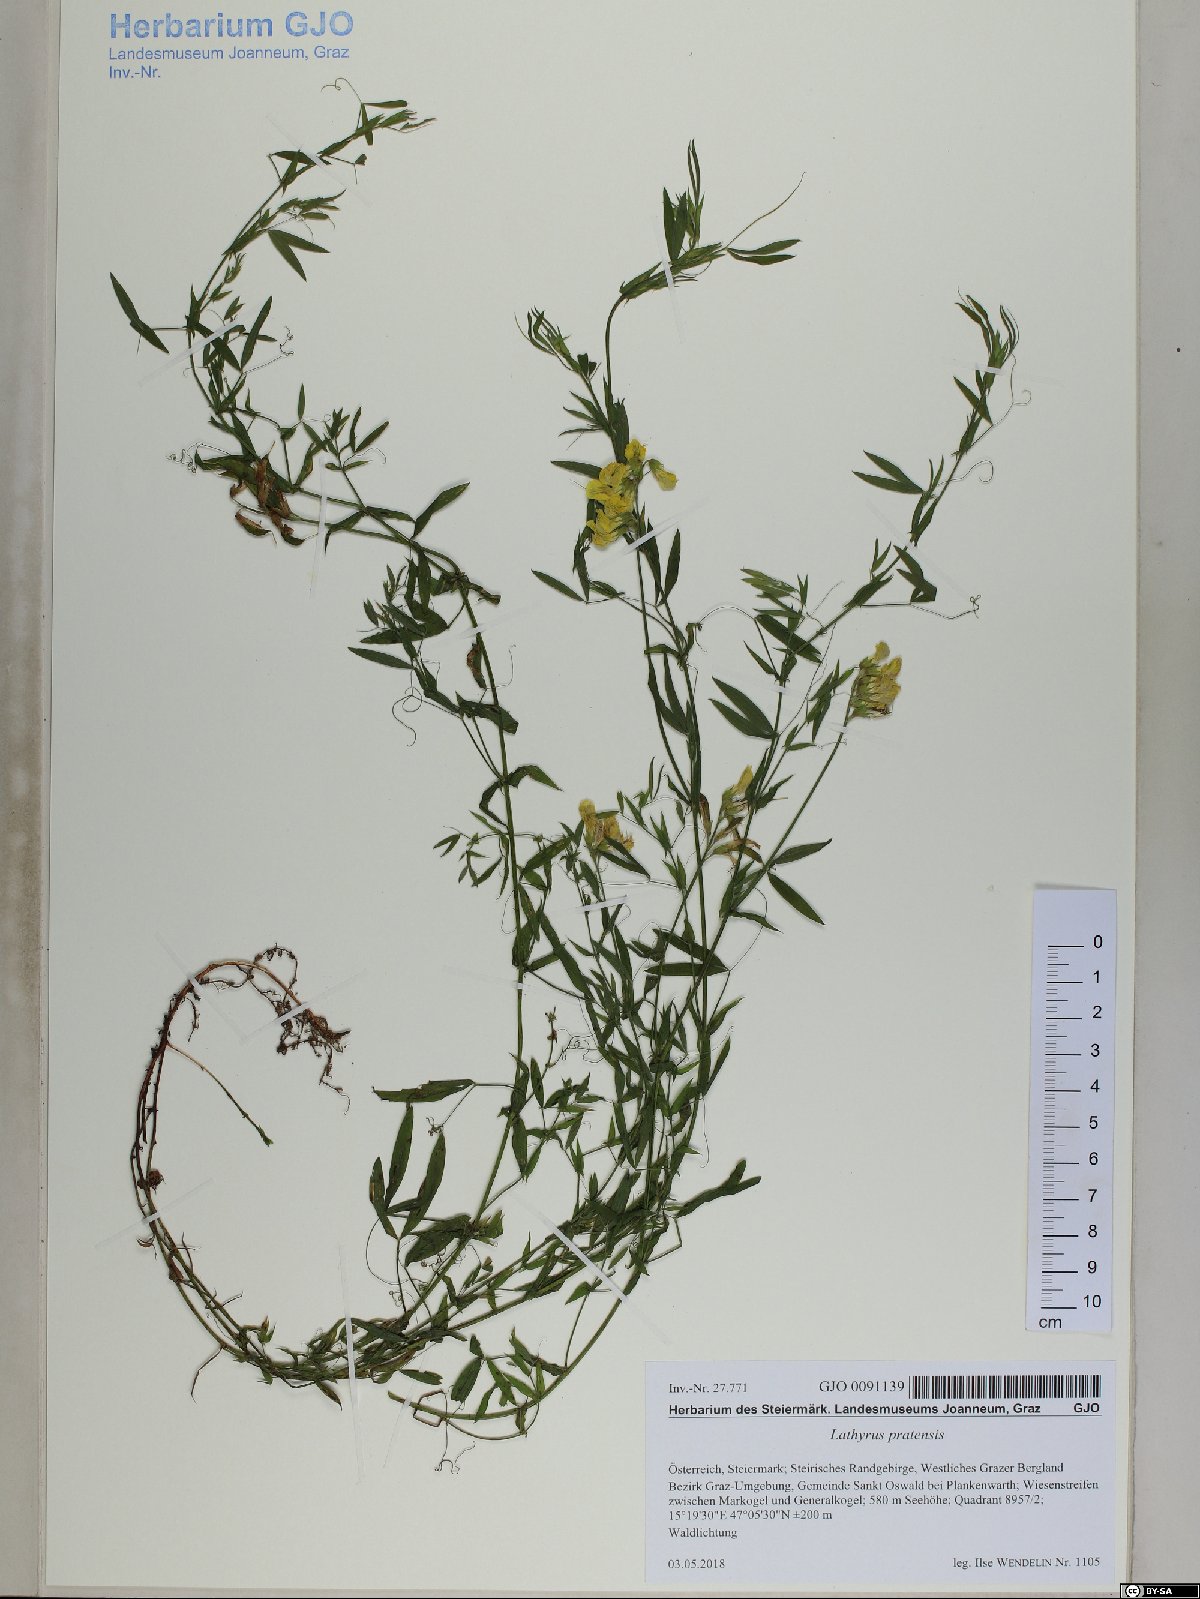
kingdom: Plantae
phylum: Tracheophyta
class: Magnoliopsida
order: Fabales
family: Fabaceae
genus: Lathyrus
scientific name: Lathyrus pratensis
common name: Meadow vetchling
